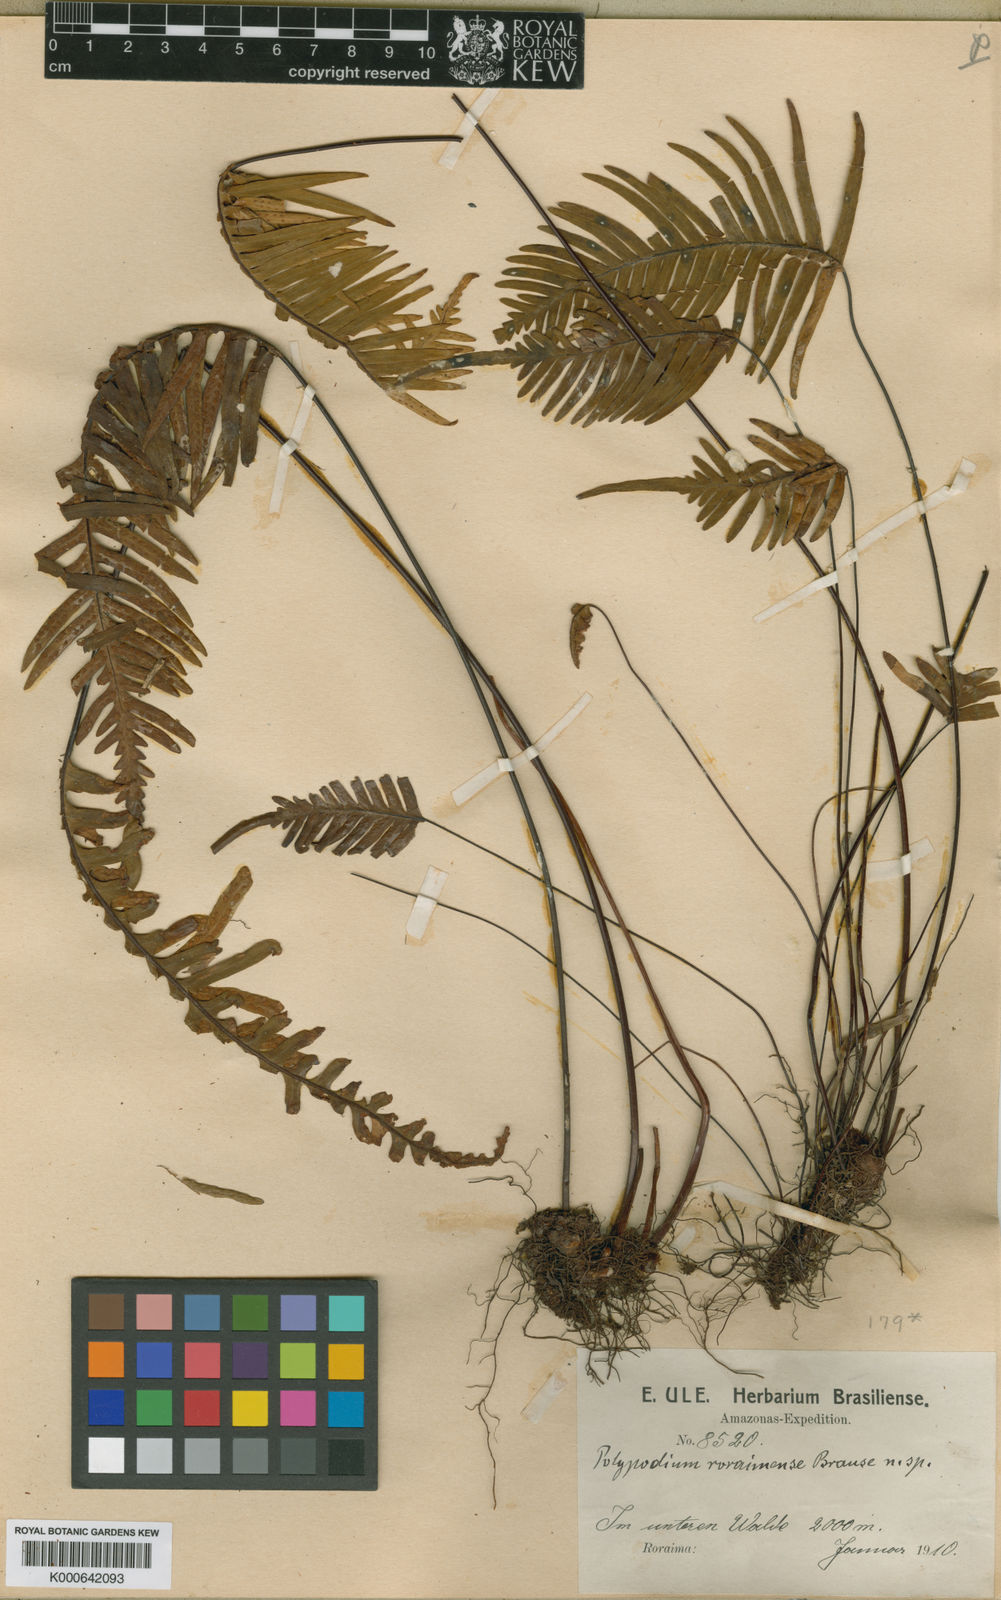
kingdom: Plantae
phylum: Tracheophyta
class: Polypodiopsida
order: Polypodiales
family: Polypodiaceae
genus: Ceradenia
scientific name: Ceradenia kalbreyeri
